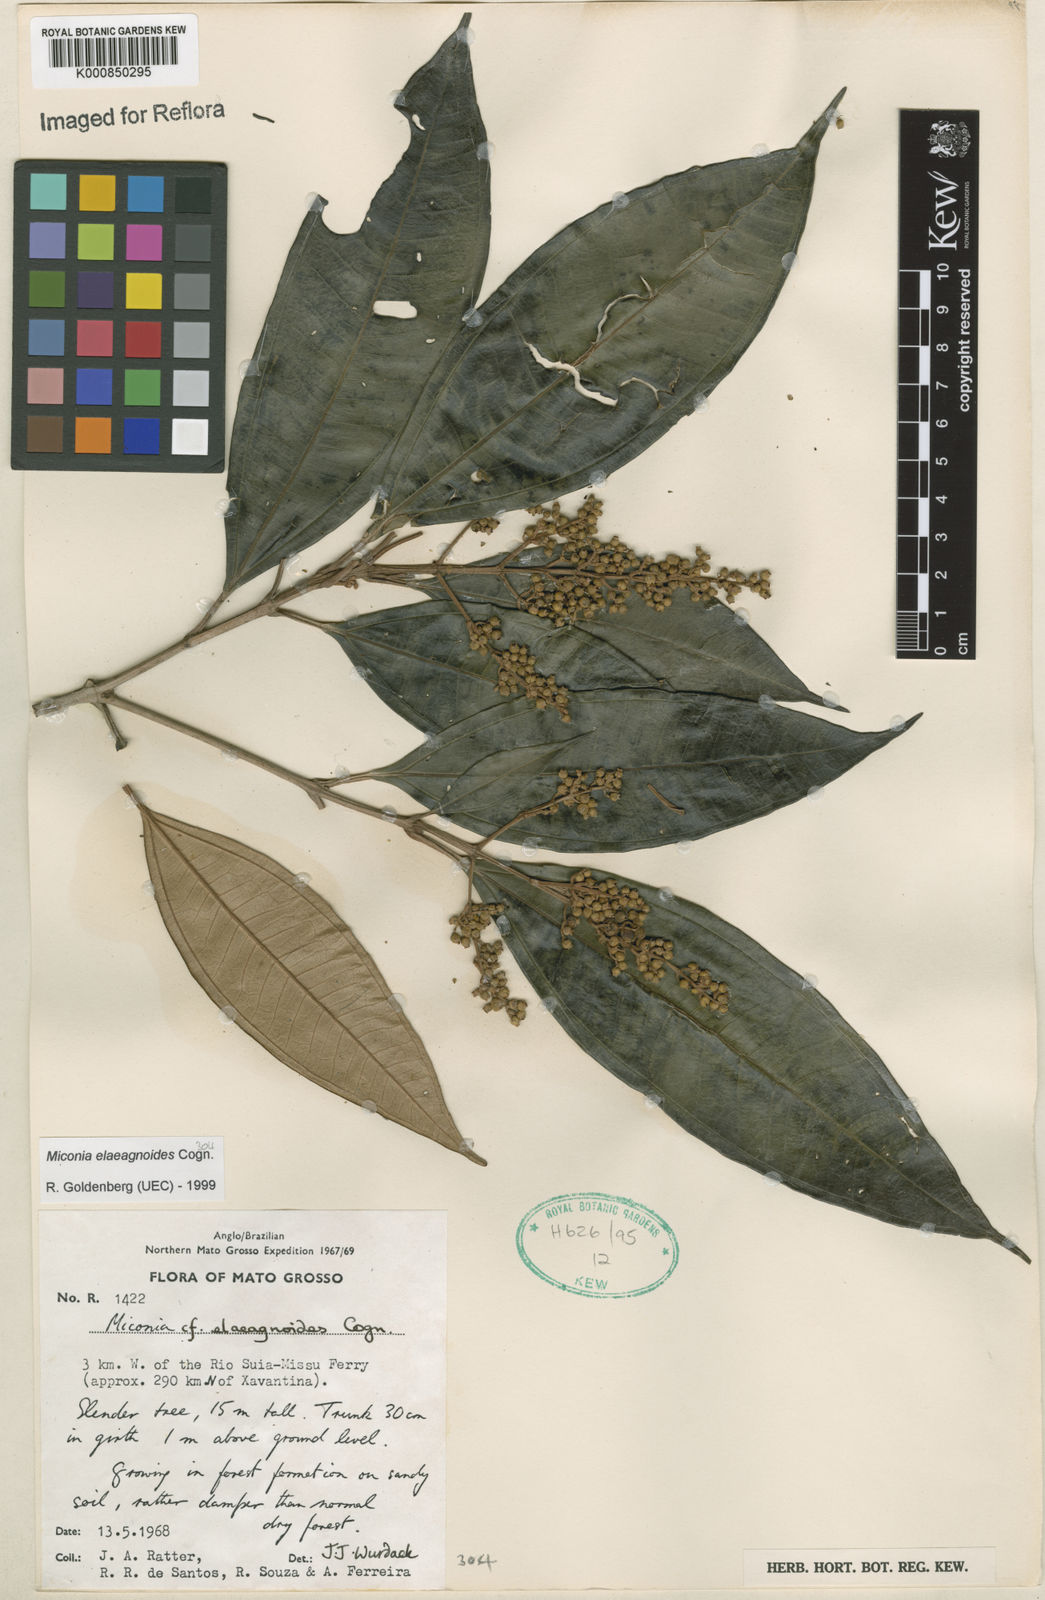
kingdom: Plantae
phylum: Tracheophyta
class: Magnoliopsida
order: Myrtales
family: Melastomataceae
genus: Miconia
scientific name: Miconia
